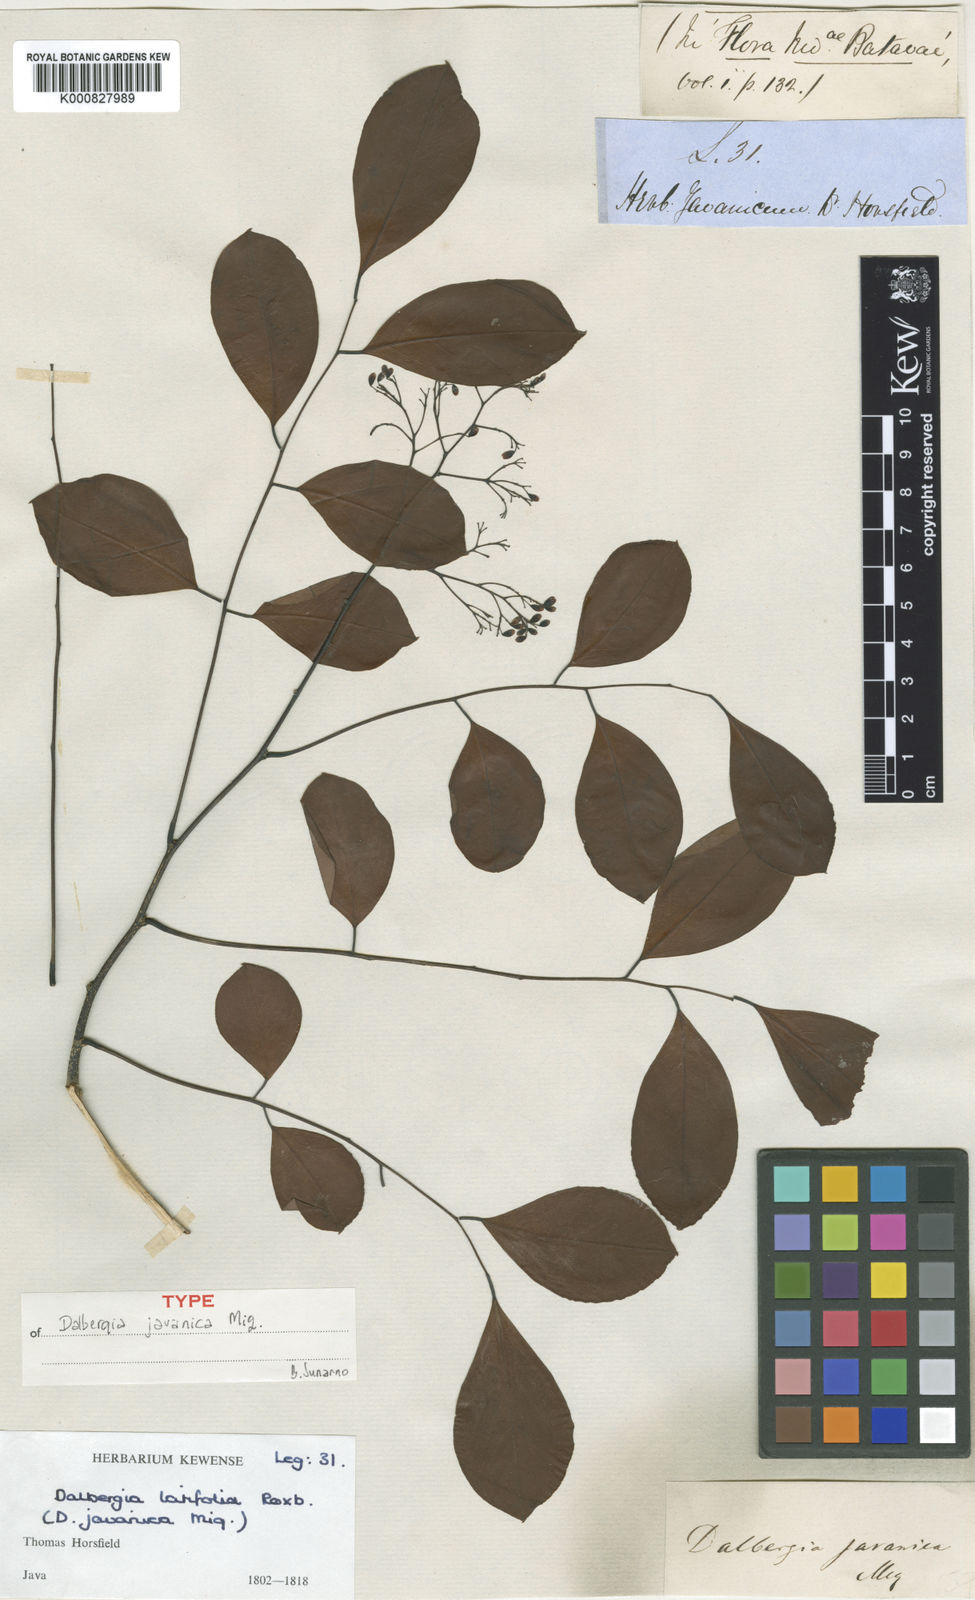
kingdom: Plantae
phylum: Tracheophyta
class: Magnoliopsida
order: Fabales
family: Fabaceae
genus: Dalbergia
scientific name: Dalbergia latifolia
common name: Bombay blackwood
